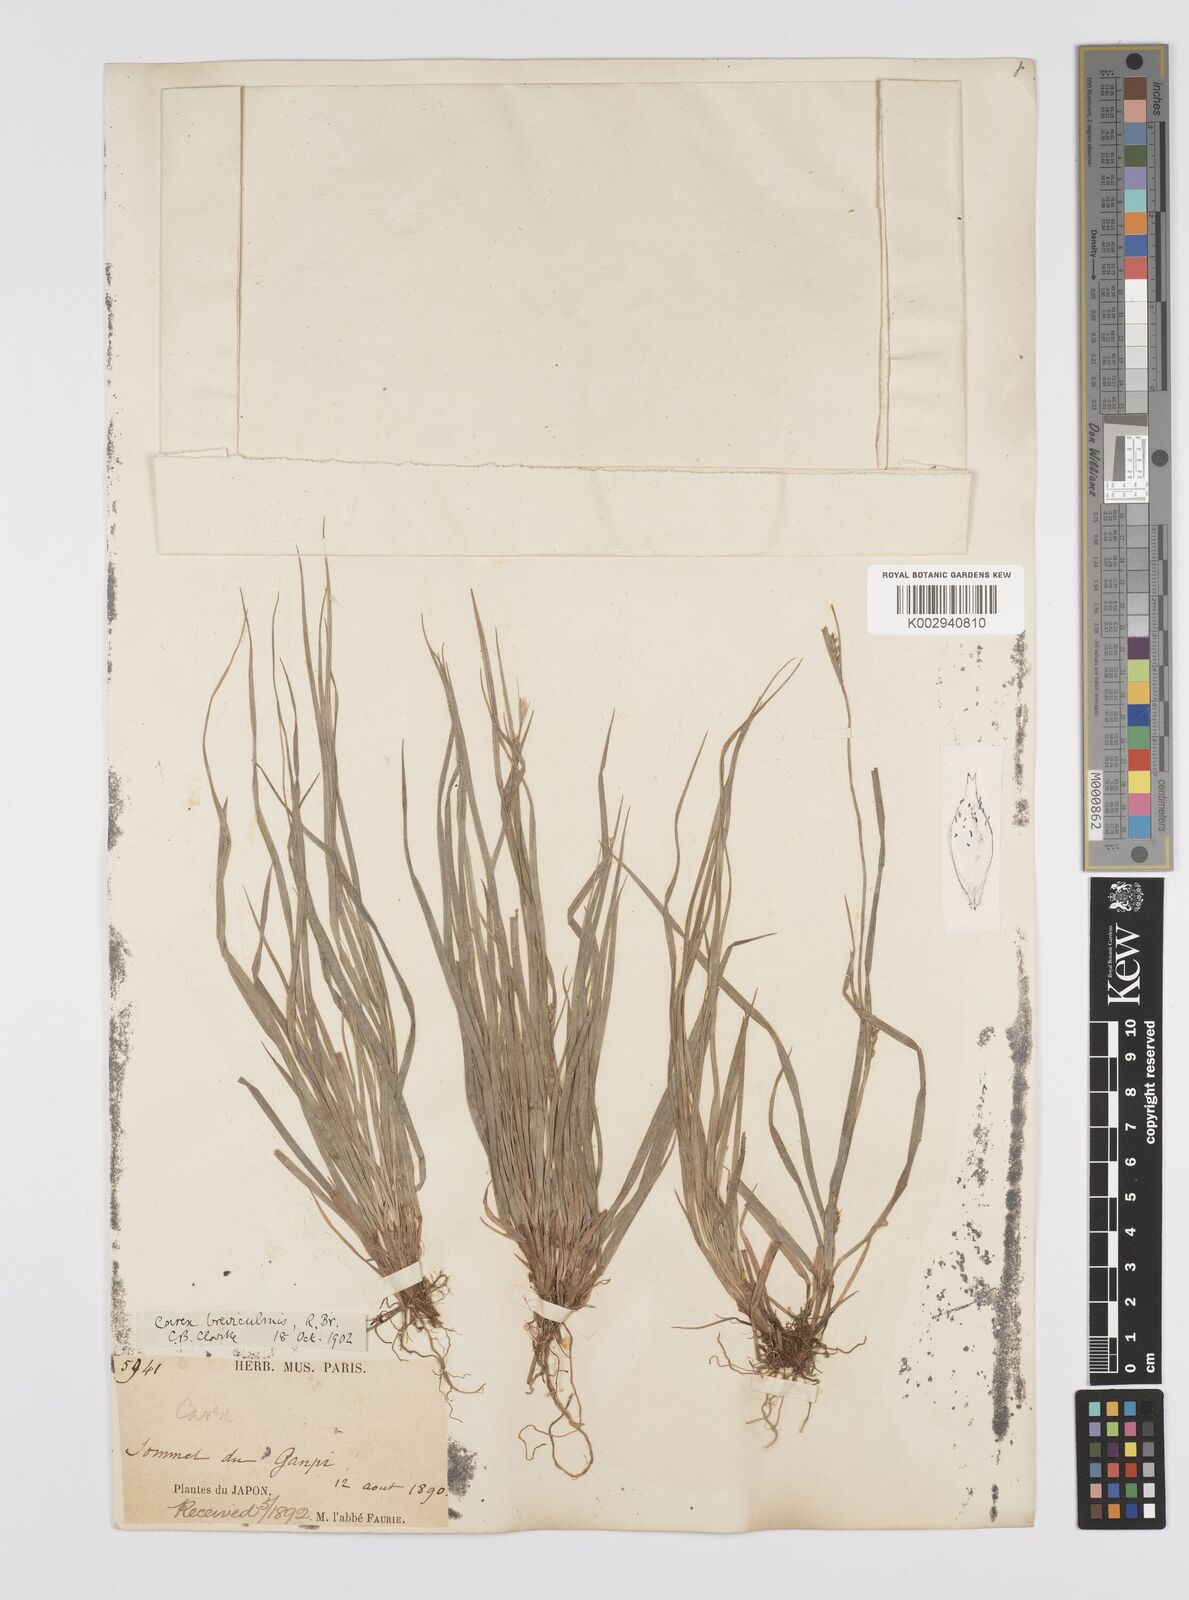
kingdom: Plantae
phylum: Tracheophyta
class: Liliopsida
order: Poales
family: Cyperaceae
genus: Carex
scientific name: Carex breviculmis
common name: Asian shortstem sedge
